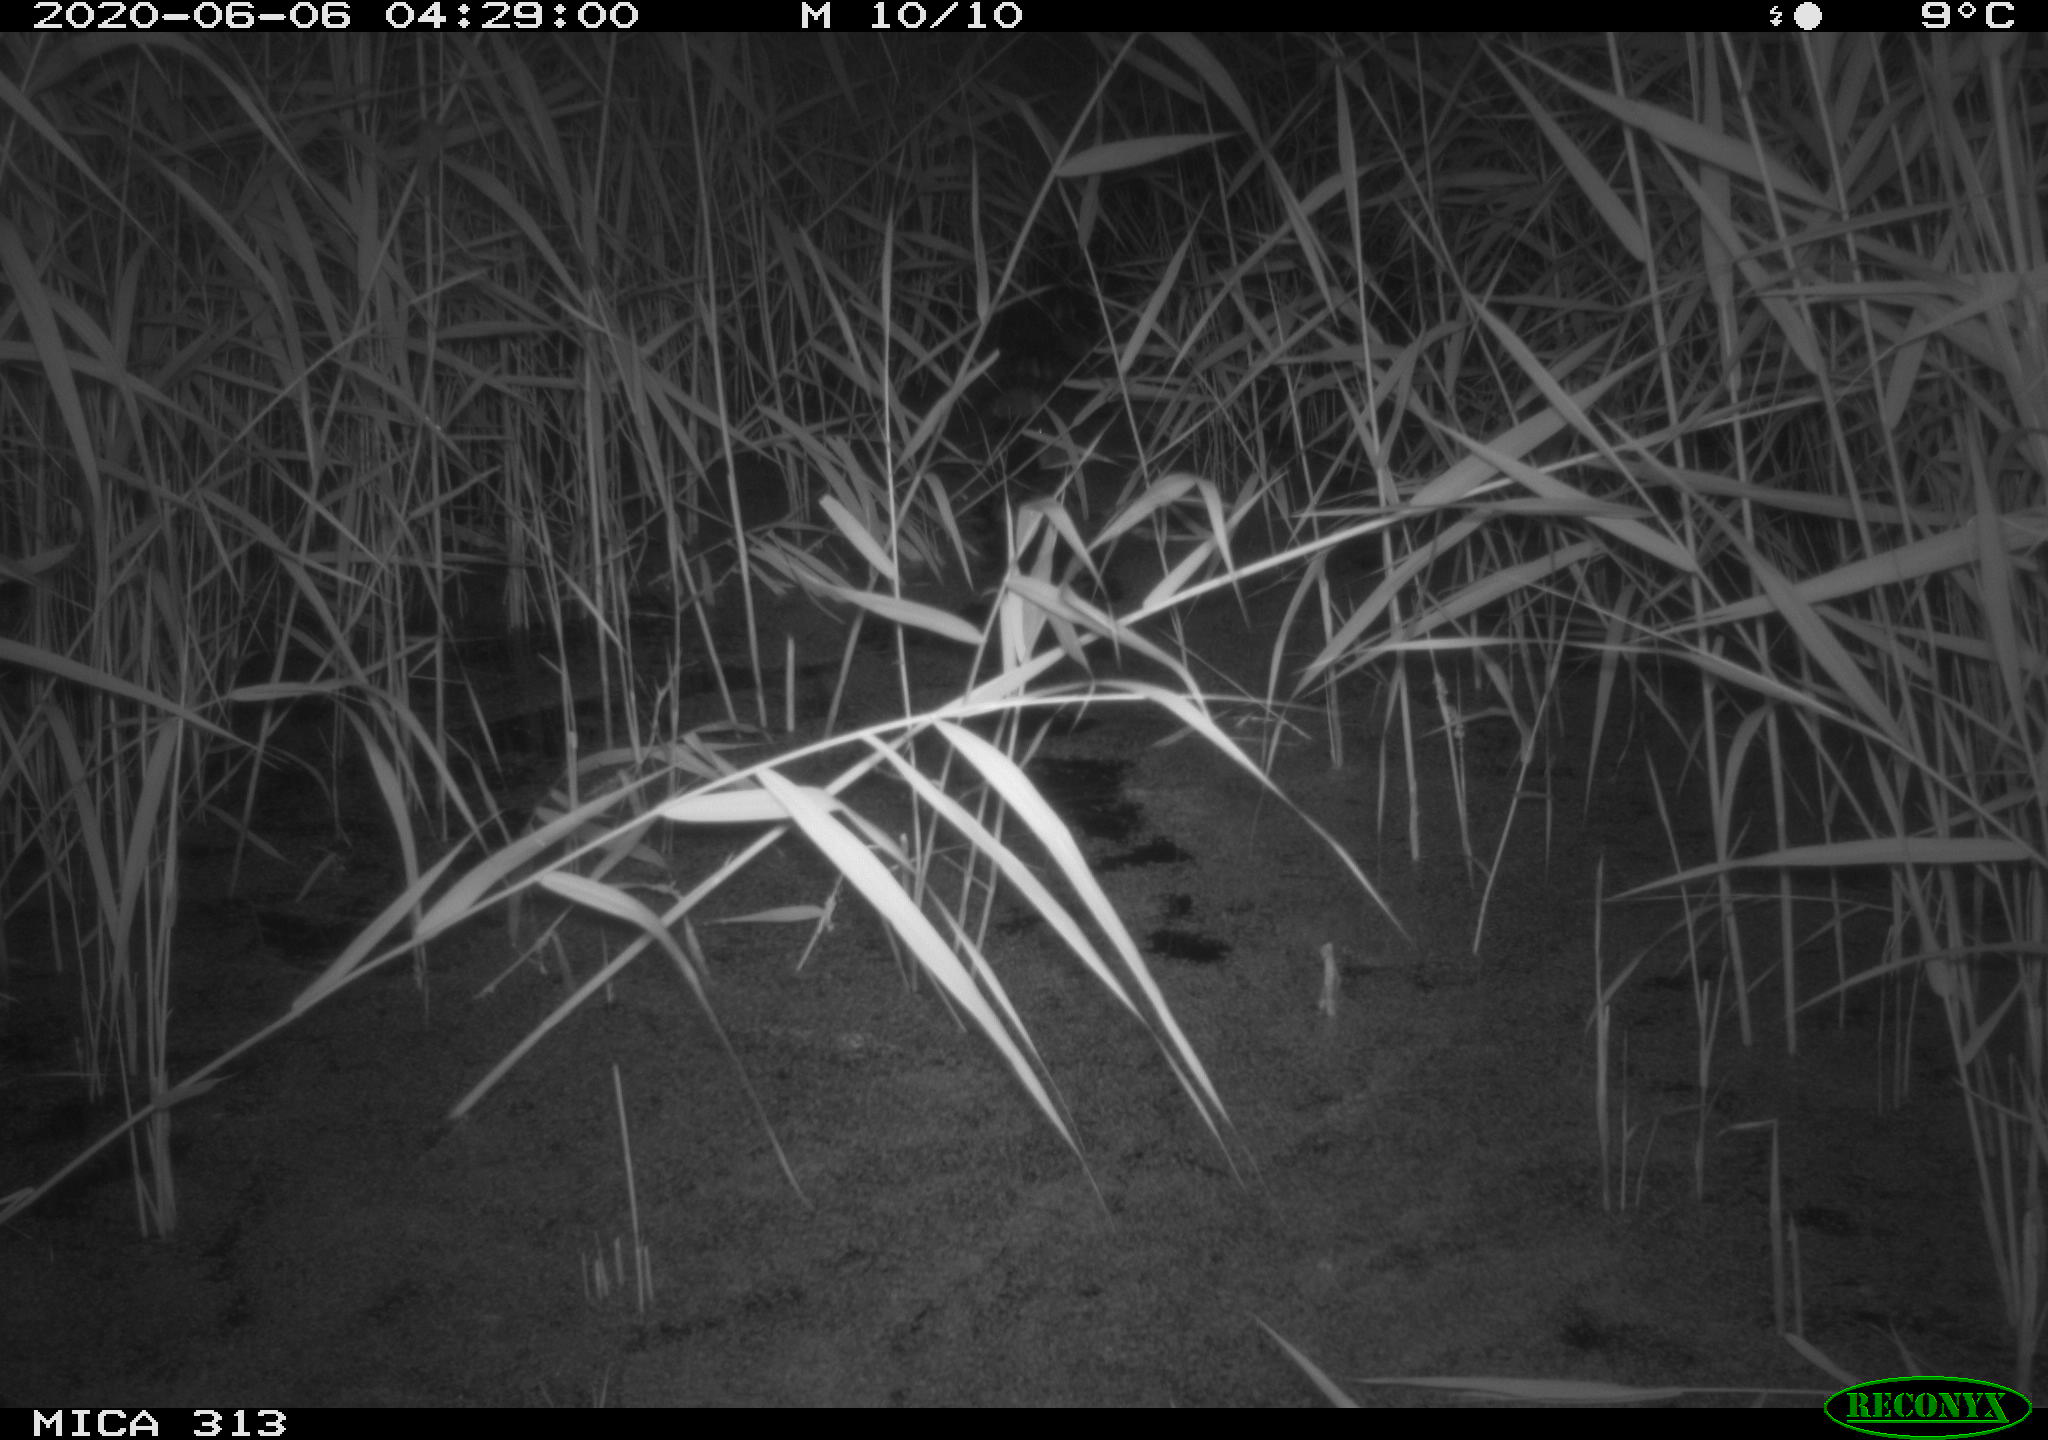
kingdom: Animalia
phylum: Chordata
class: Aves
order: Anseriformes
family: Anatidae
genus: Anas
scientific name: Anas platyrhynchos
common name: Mallard
